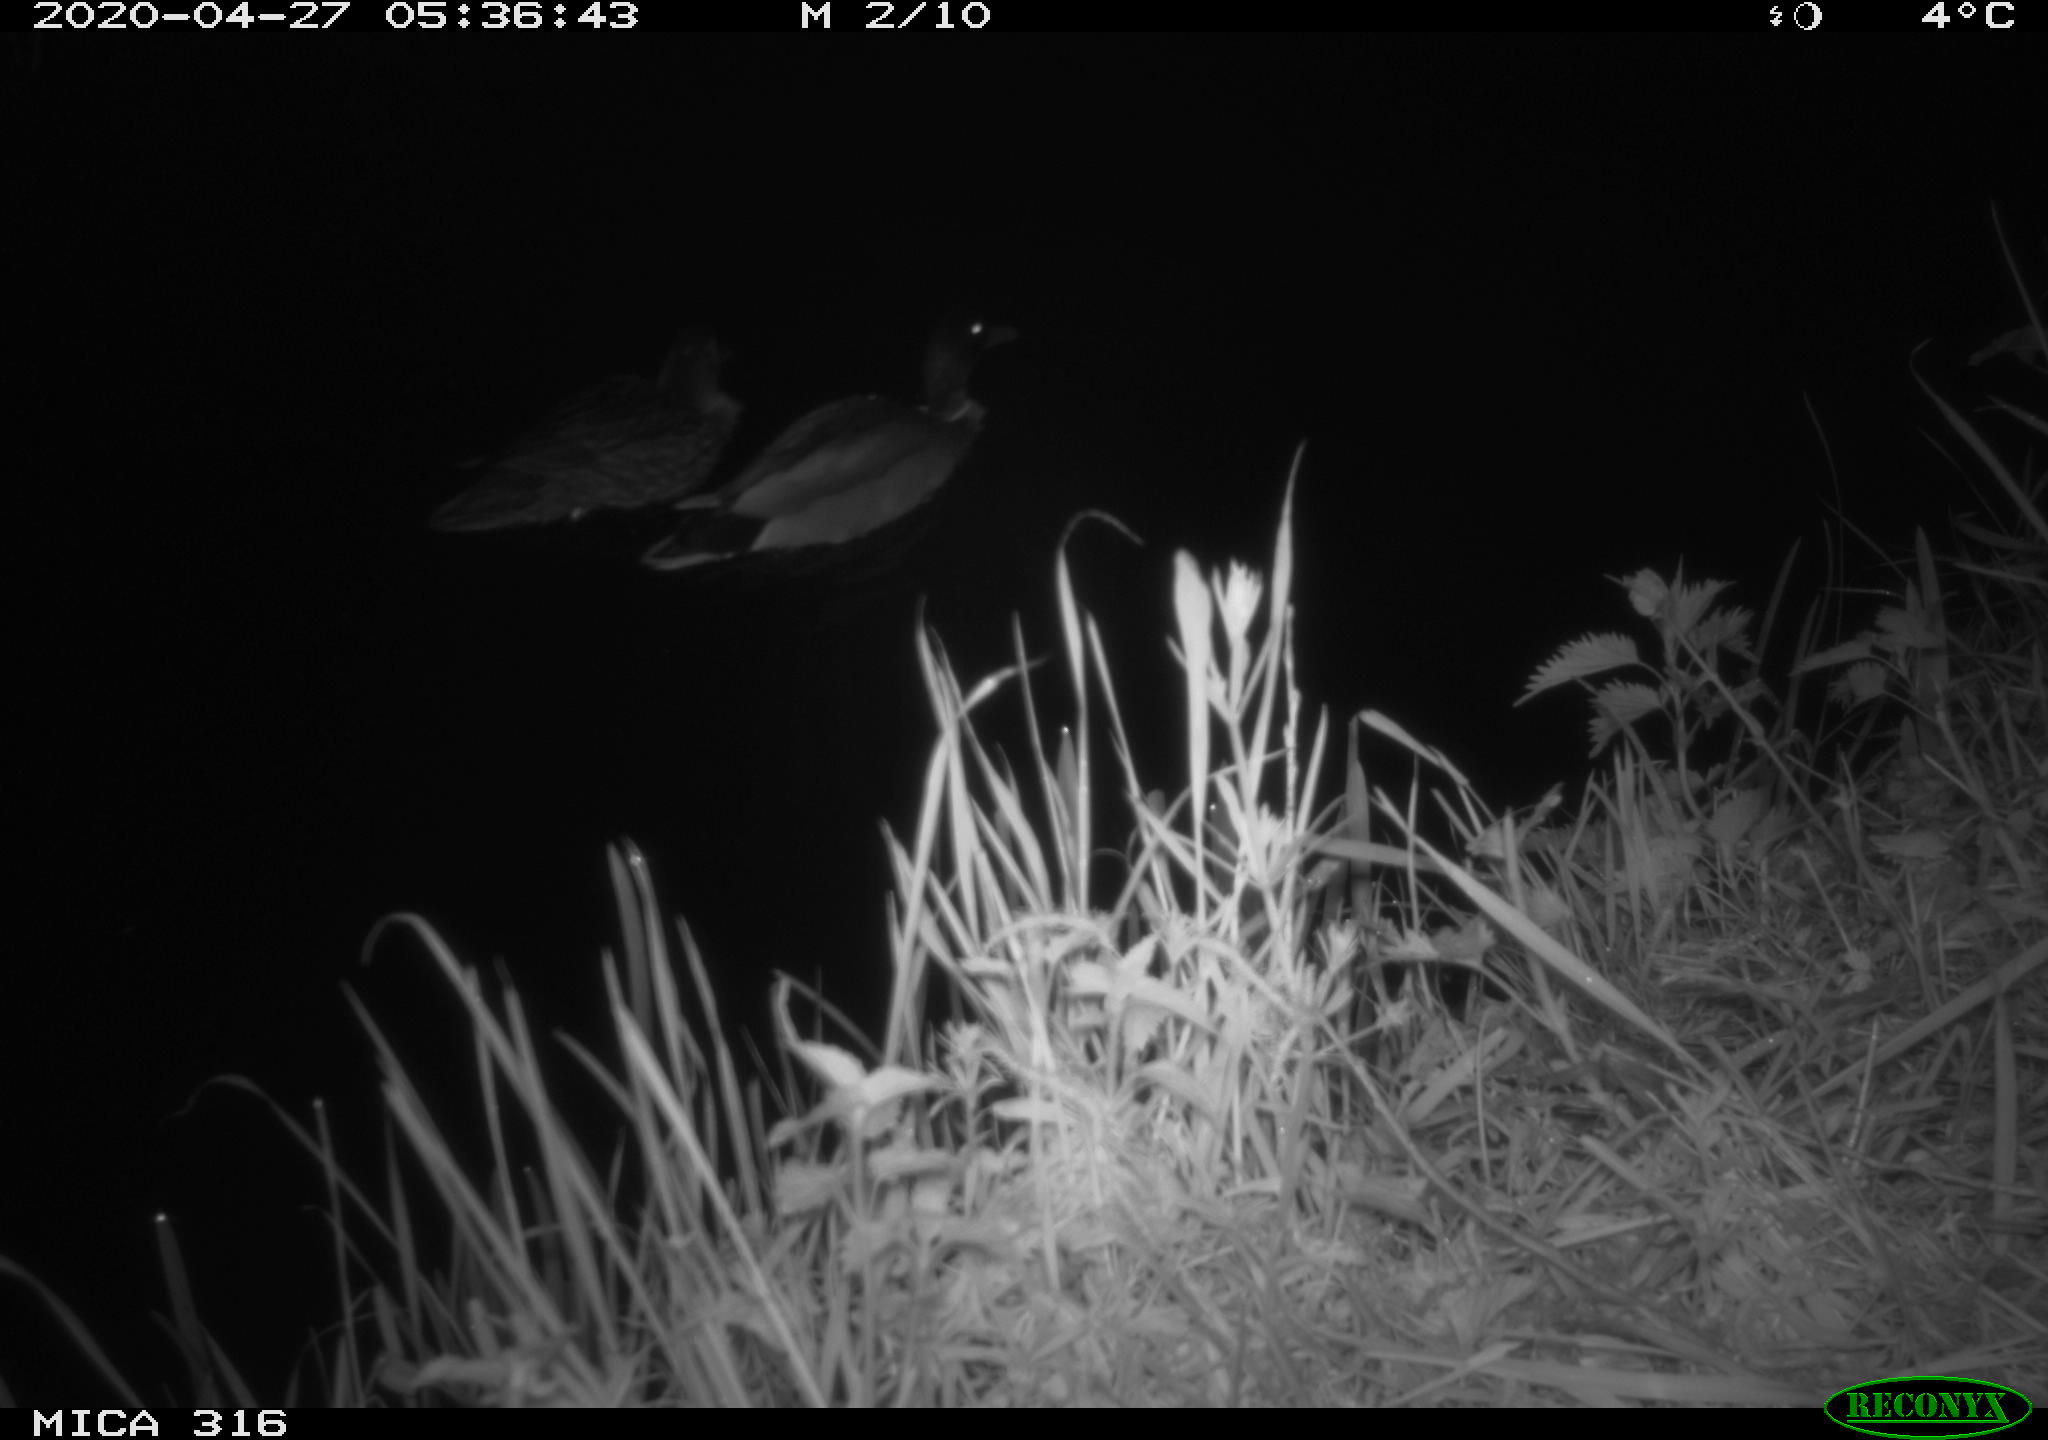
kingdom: Animalia
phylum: Chordata
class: Aves
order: Anseriformes
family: Anatidae
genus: Anas
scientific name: Anas platyrhynchos
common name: Mallard
